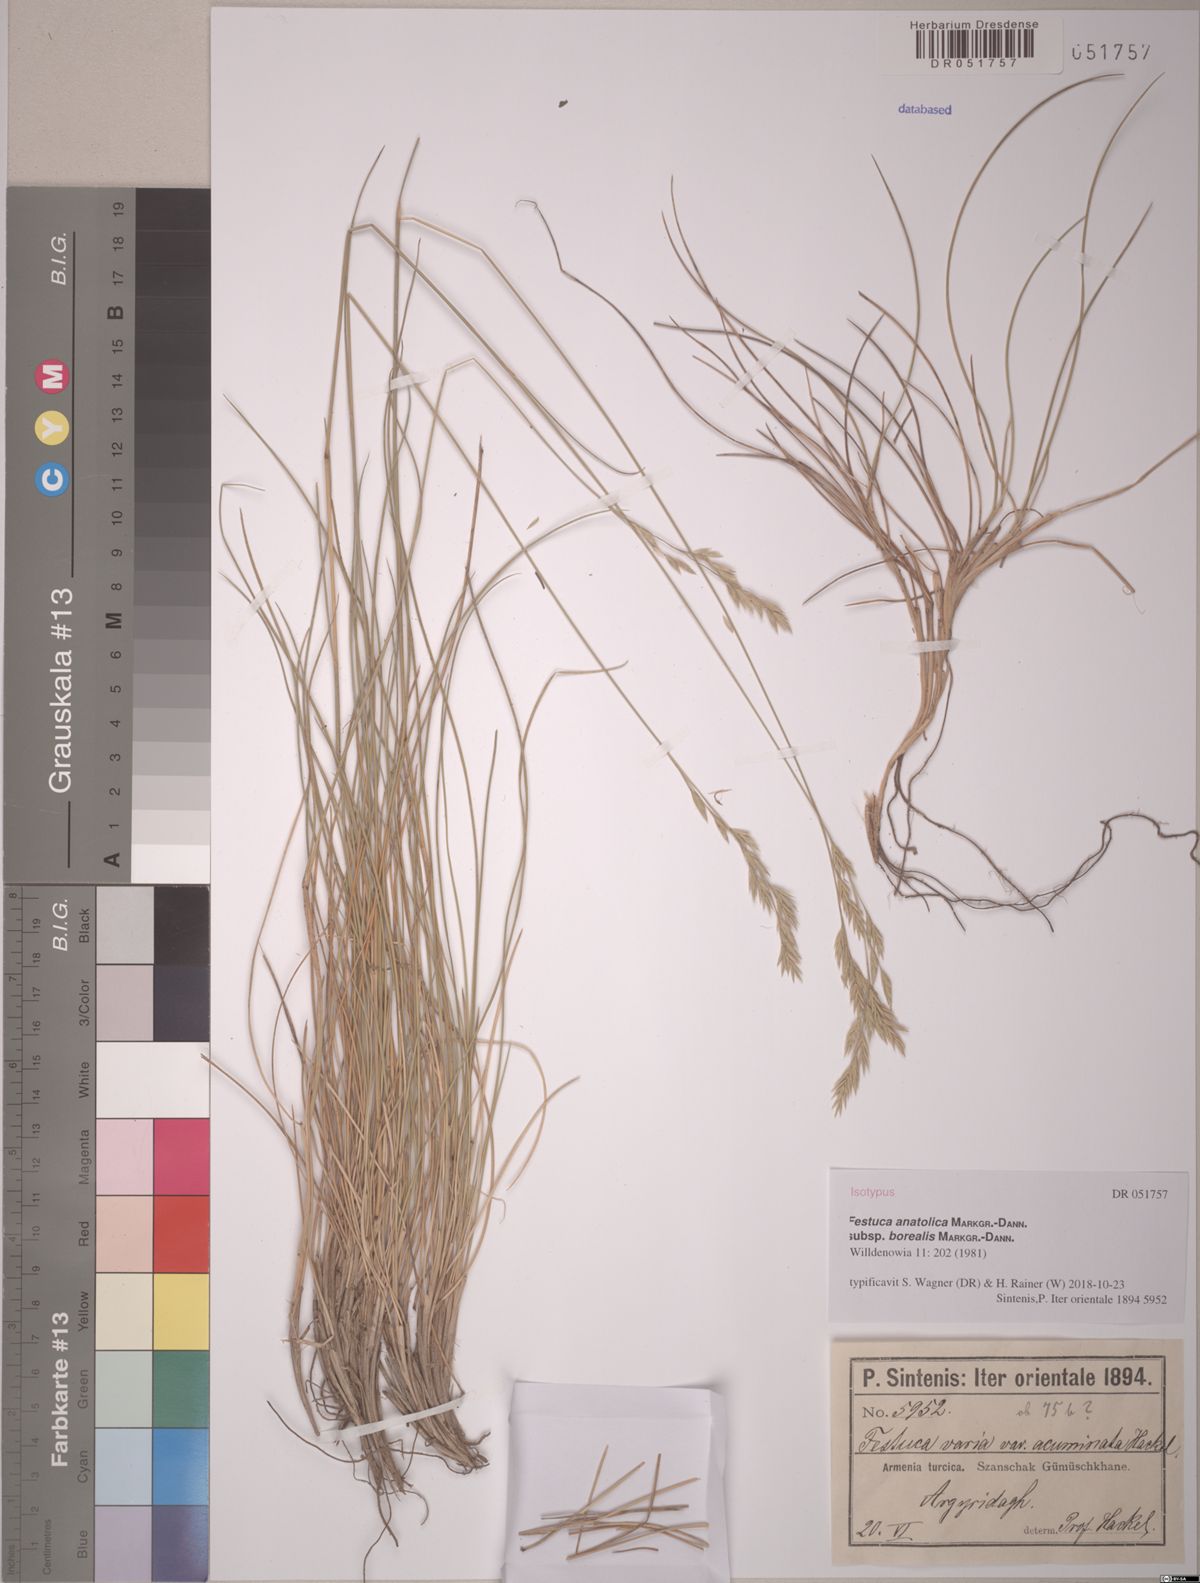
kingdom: Plantae
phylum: Tracheophyta
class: Liliopsida
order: Poales
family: Poaceae
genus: Festuca
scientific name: Festuca anatolica
